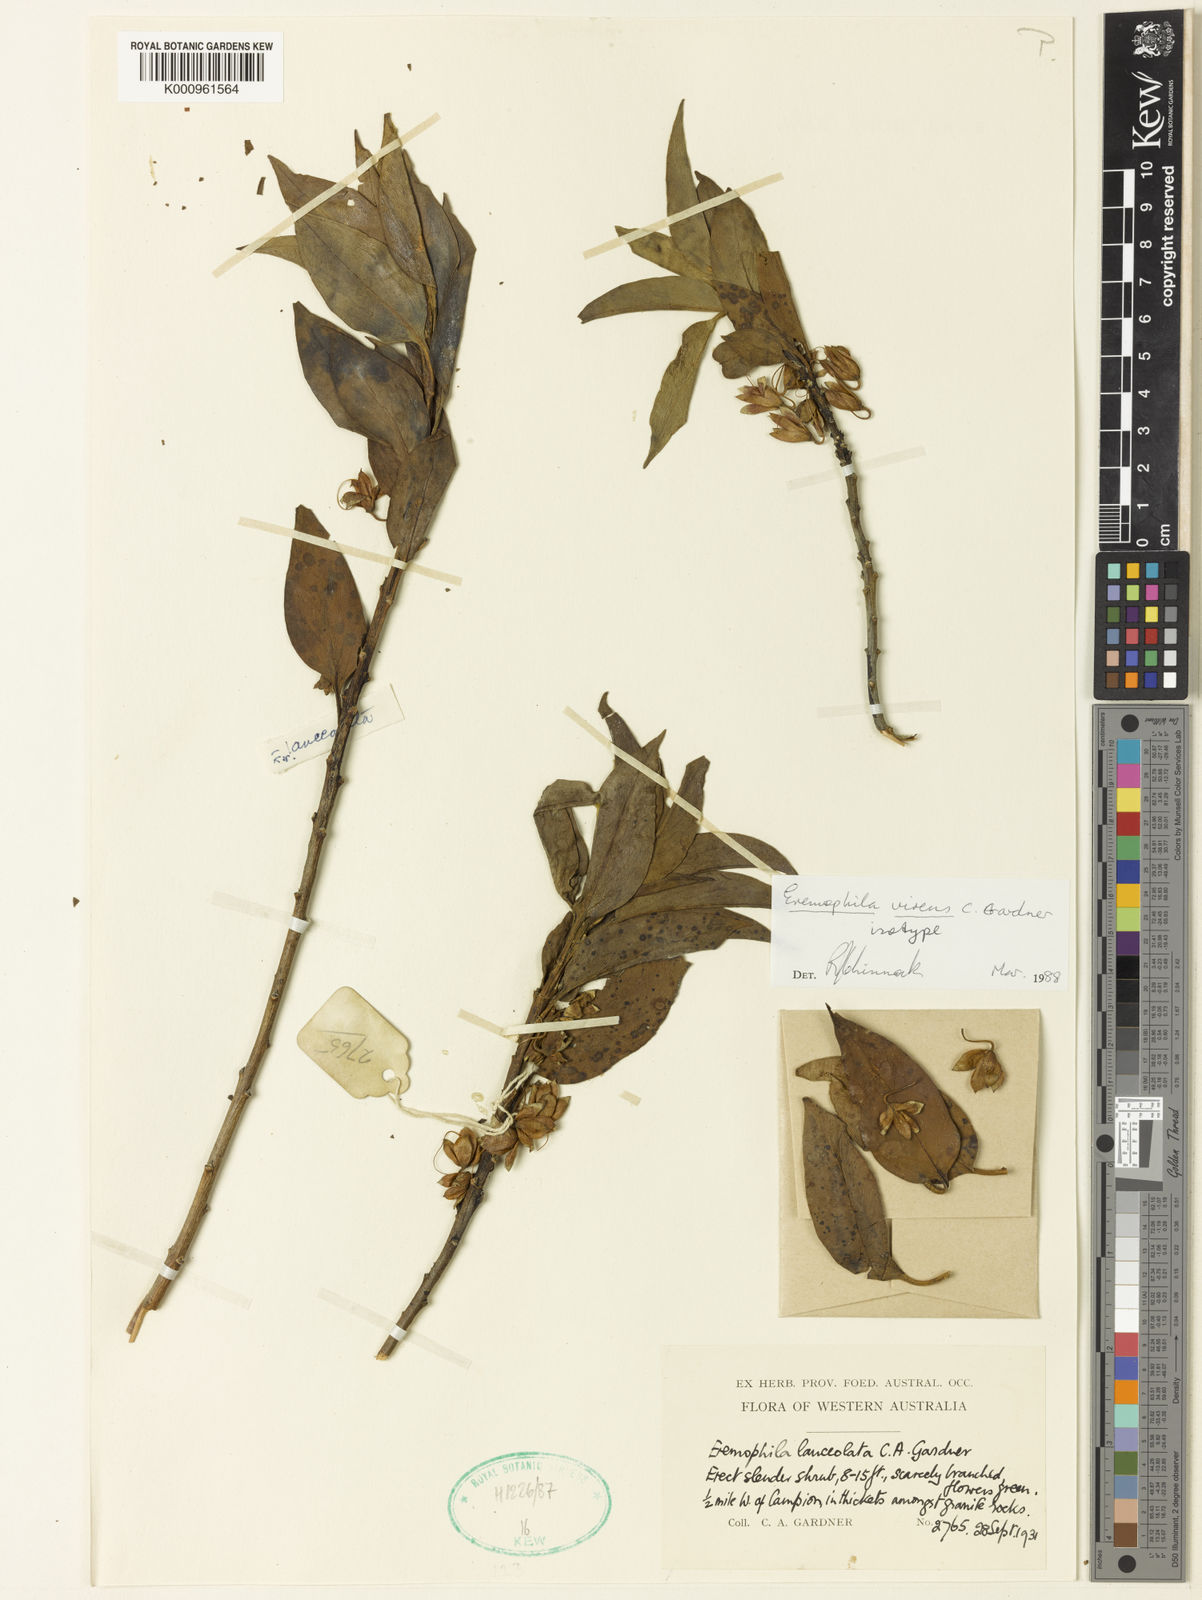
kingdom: Plantae
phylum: Tracheophyta
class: Magnoliopsida
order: Lamiales
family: Scrophulariaceae
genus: Eremophila
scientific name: Eremophila virens
